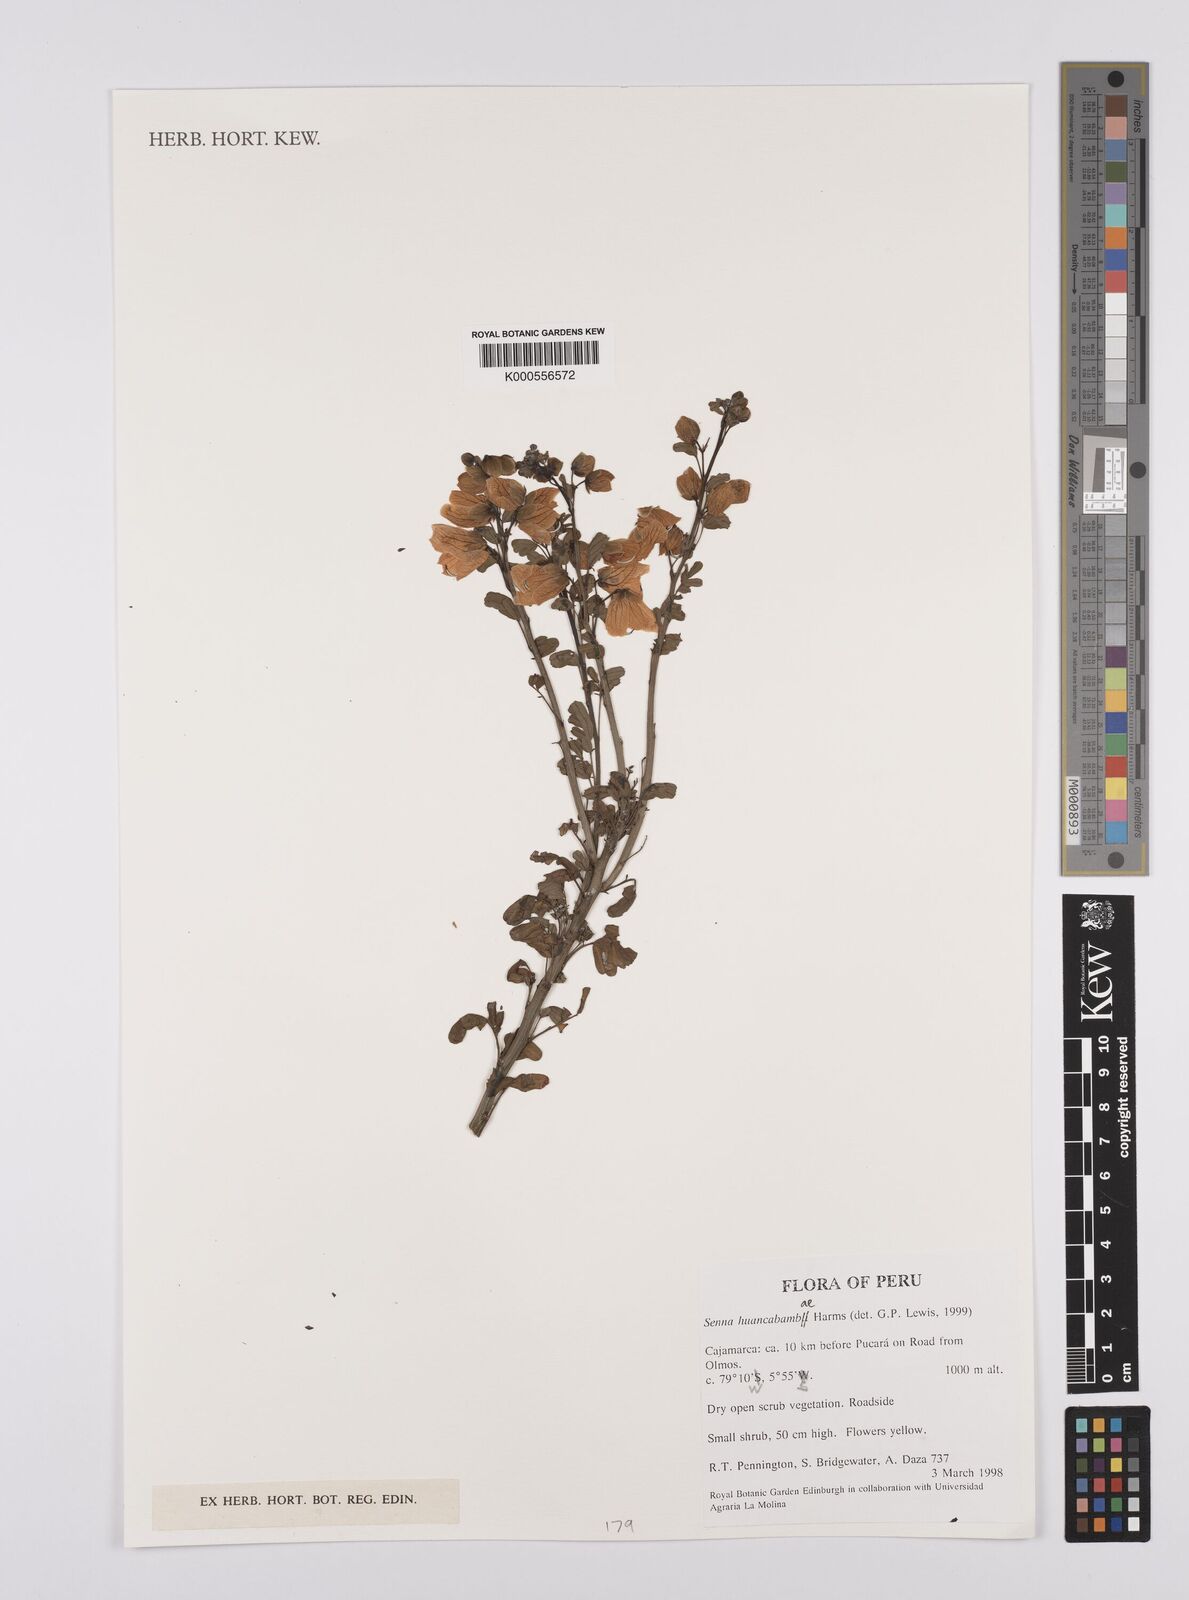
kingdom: Plantae
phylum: Tracheophyta
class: Magnoliopsida
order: Fabales
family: Fabaceae
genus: Senna
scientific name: Senna huancabambae
